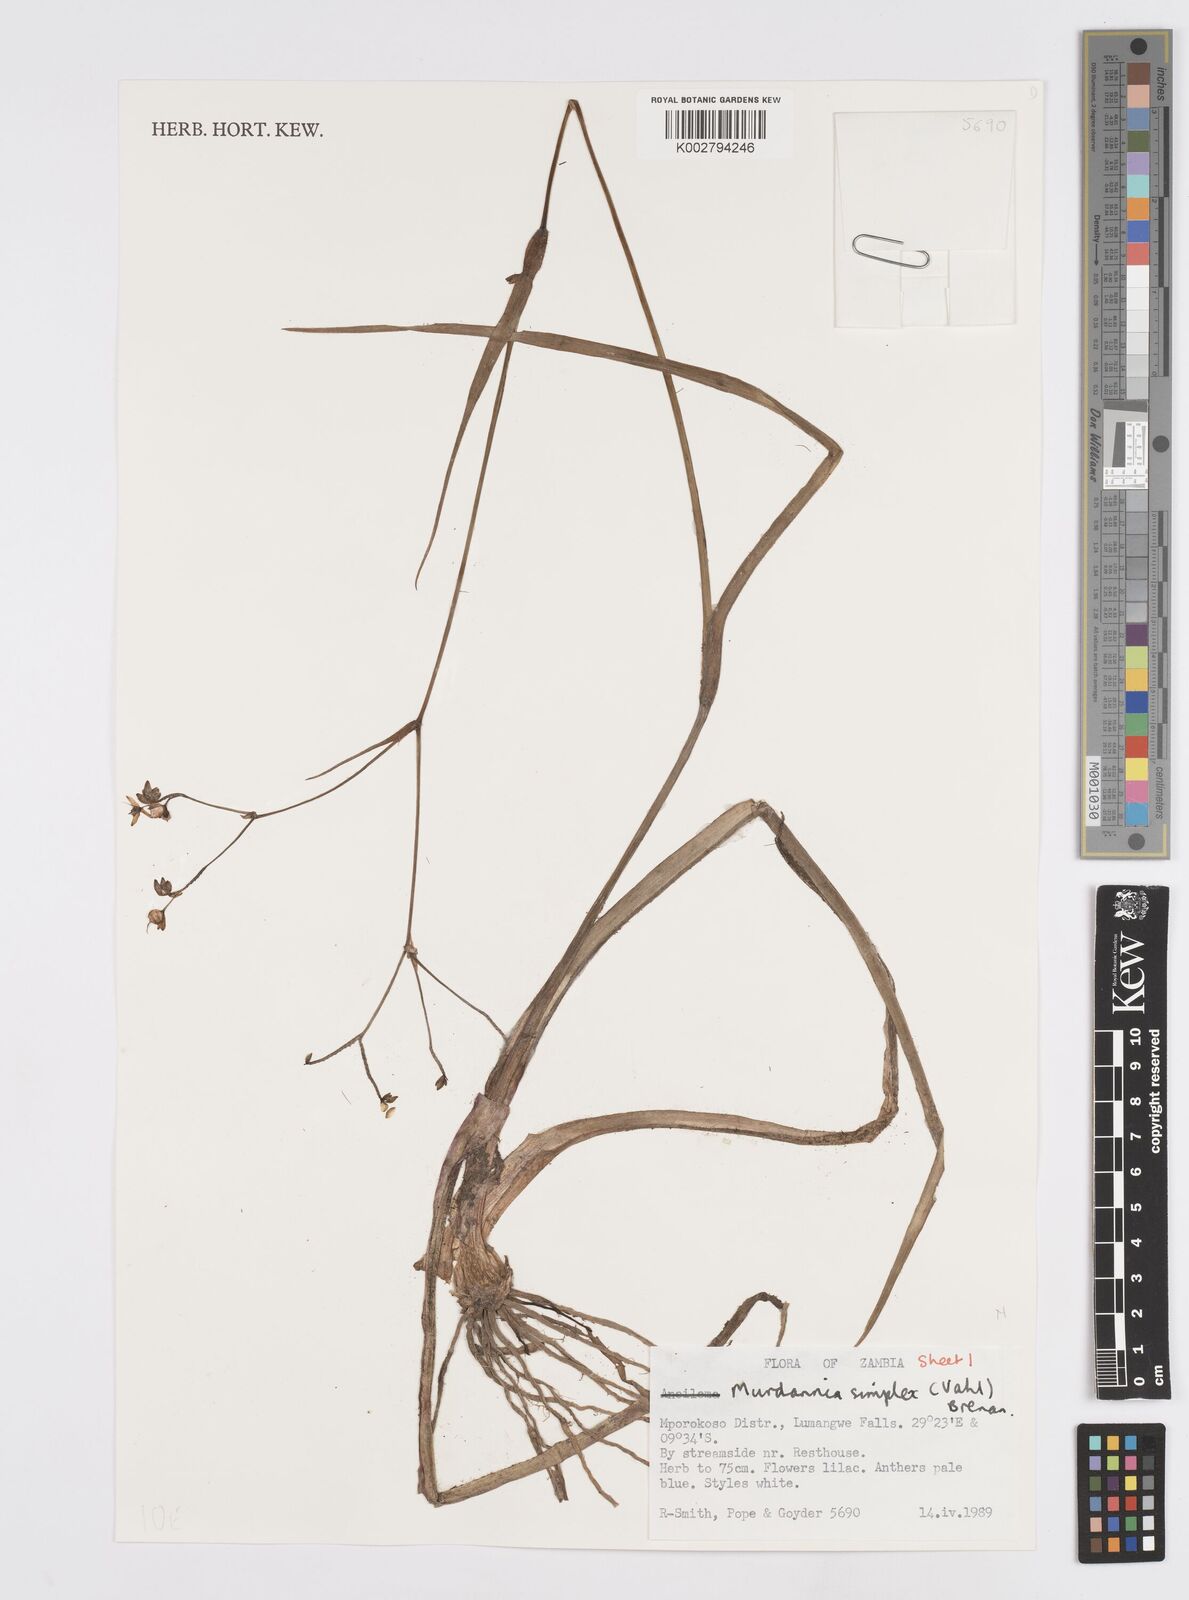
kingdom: Plantae
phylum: Tracheophyta
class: Liliopsida
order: Commelinales
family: Commelinaceae
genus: Murdannia
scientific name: Murdannia simplex
